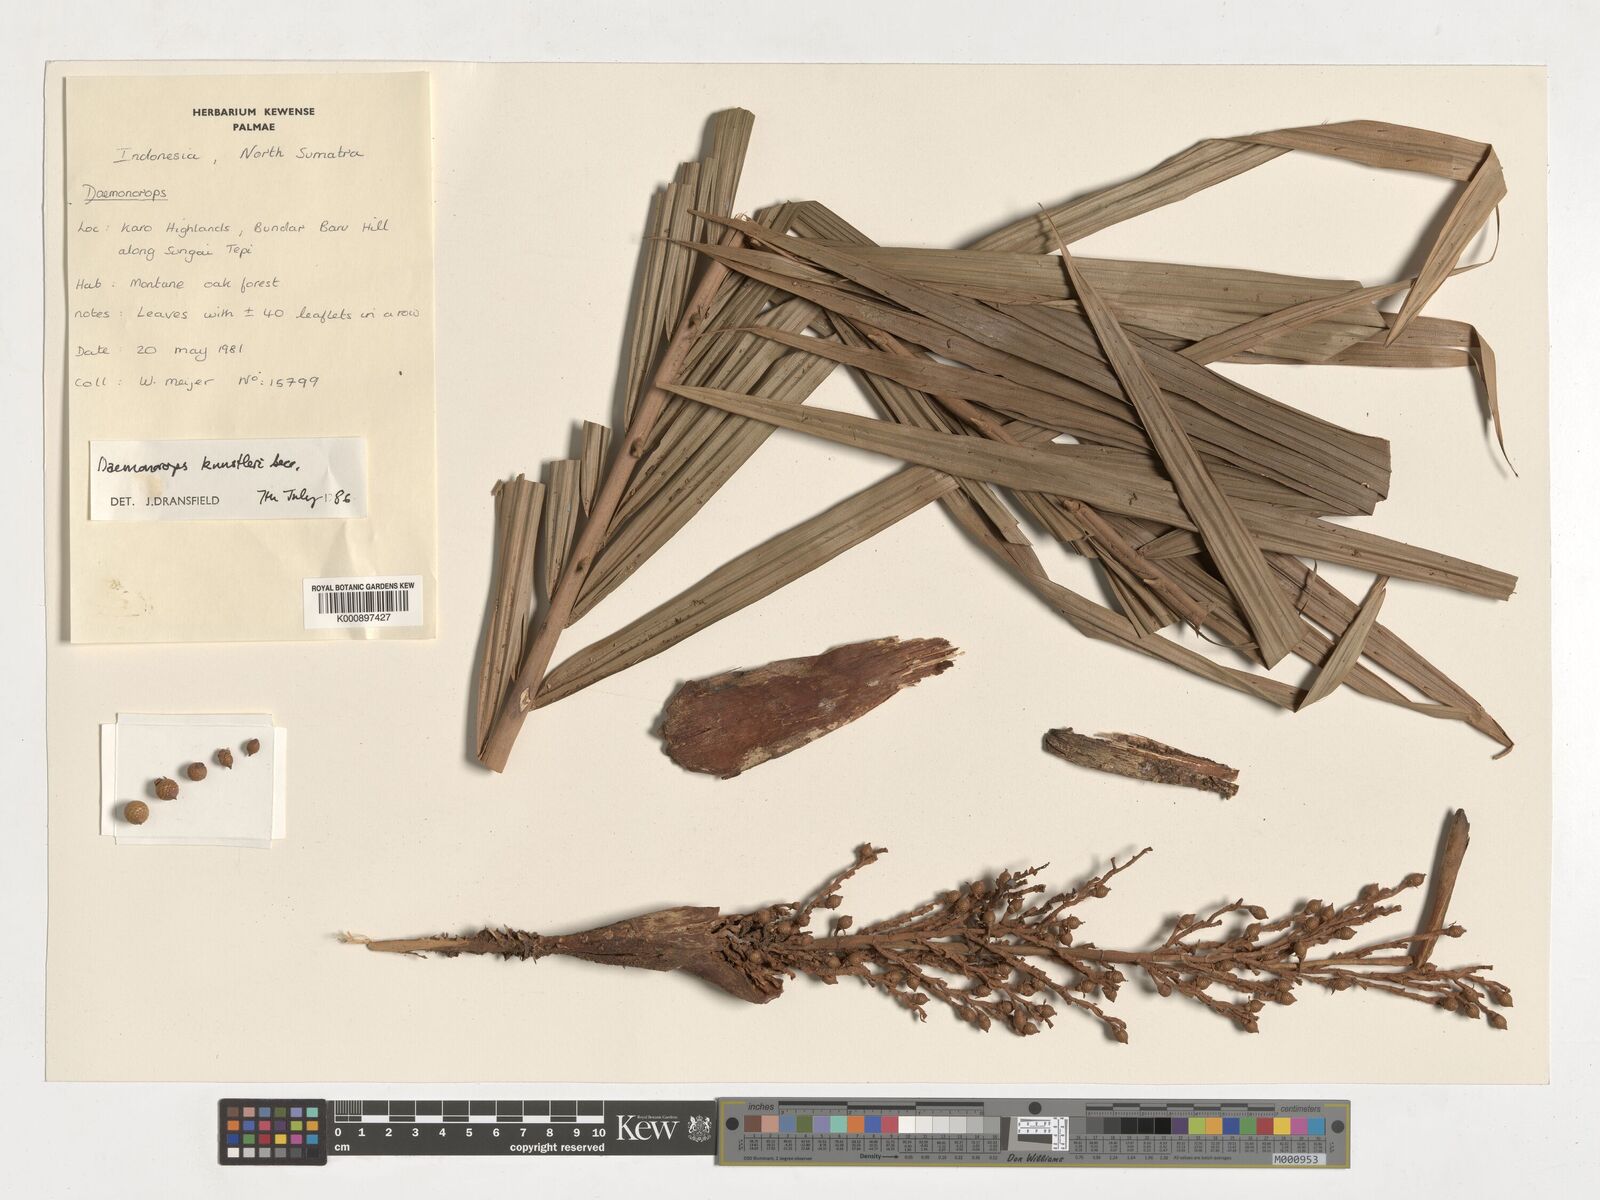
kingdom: Plantae
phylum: Tracheophyta
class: Liliopsida
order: Arecales
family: Arecaceae
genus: Calamus
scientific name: Calamus kunstleri
